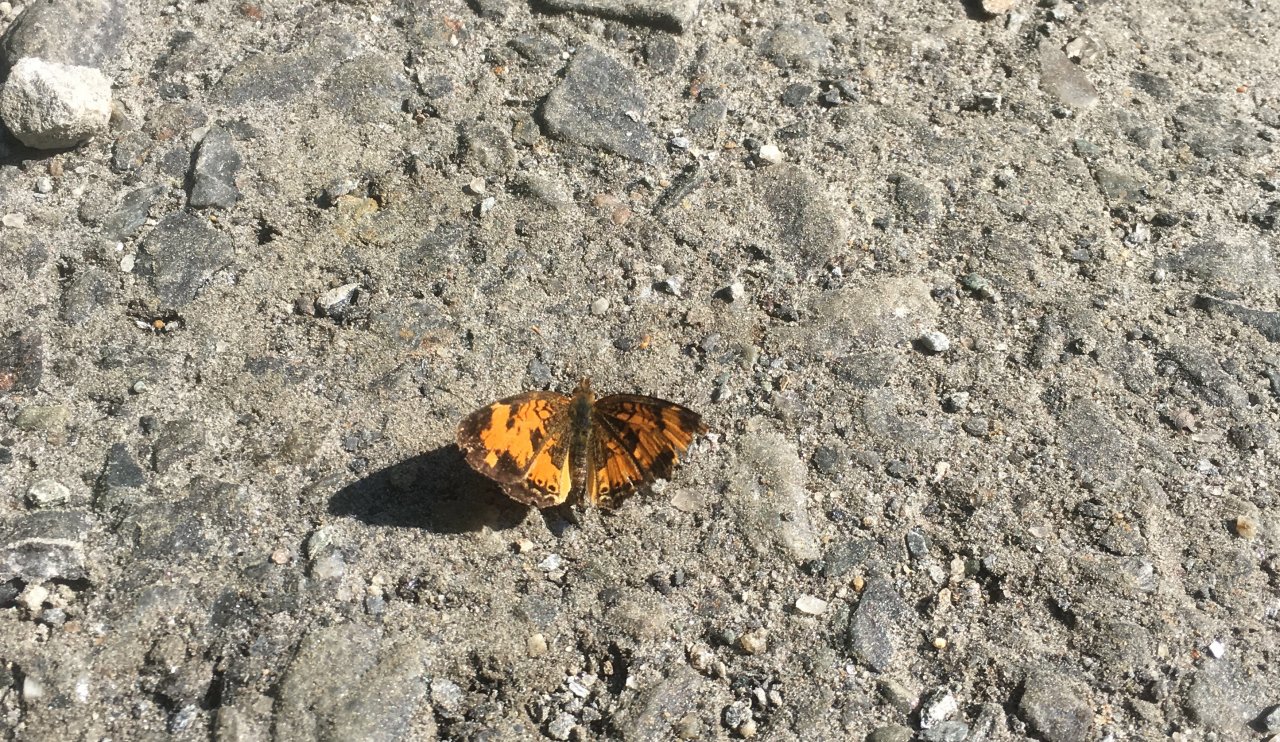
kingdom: Animalia
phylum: Arthropoda
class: Insecta
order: Lepidoptera
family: Nymphalidae
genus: Phyciodes
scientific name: Phyciodes tharos
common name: Northern Crescent
